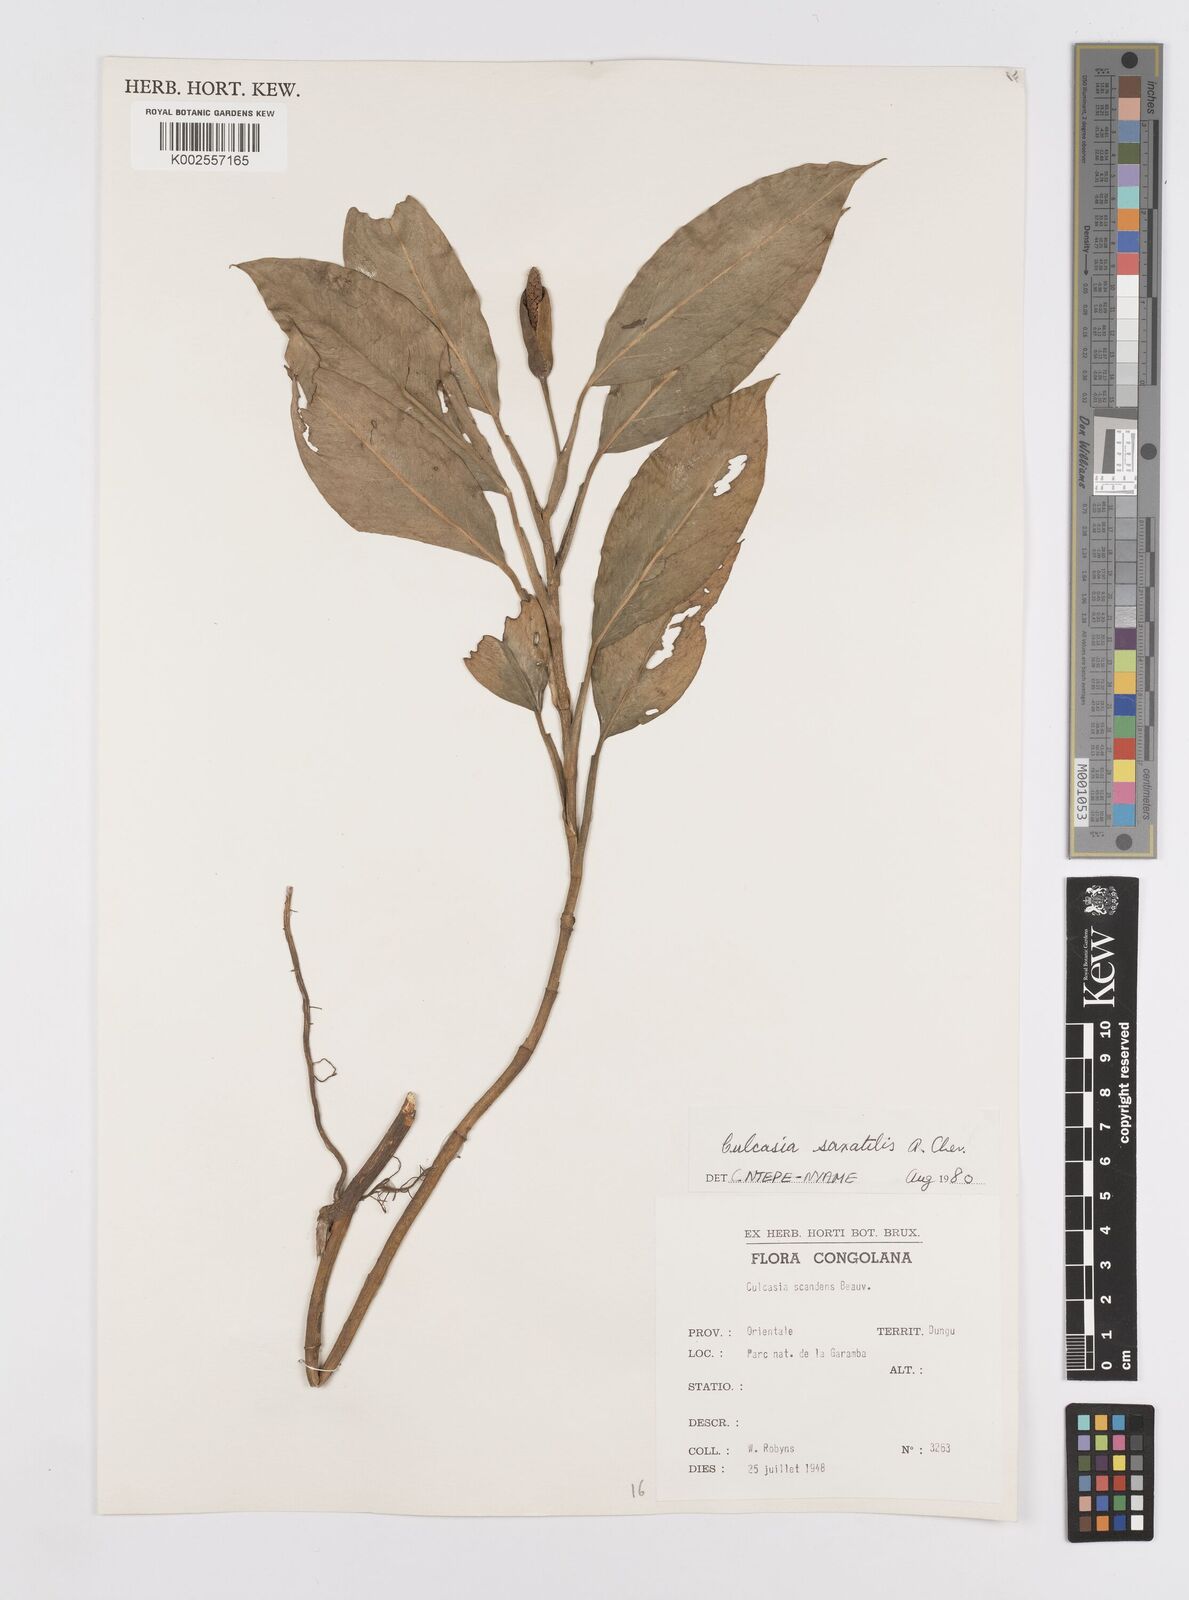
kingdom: Plantae
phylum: Tracheophyta
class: Liliopsida
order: Alismatales
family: Araceae
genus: Culcasia
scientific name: Culcasia scandens
